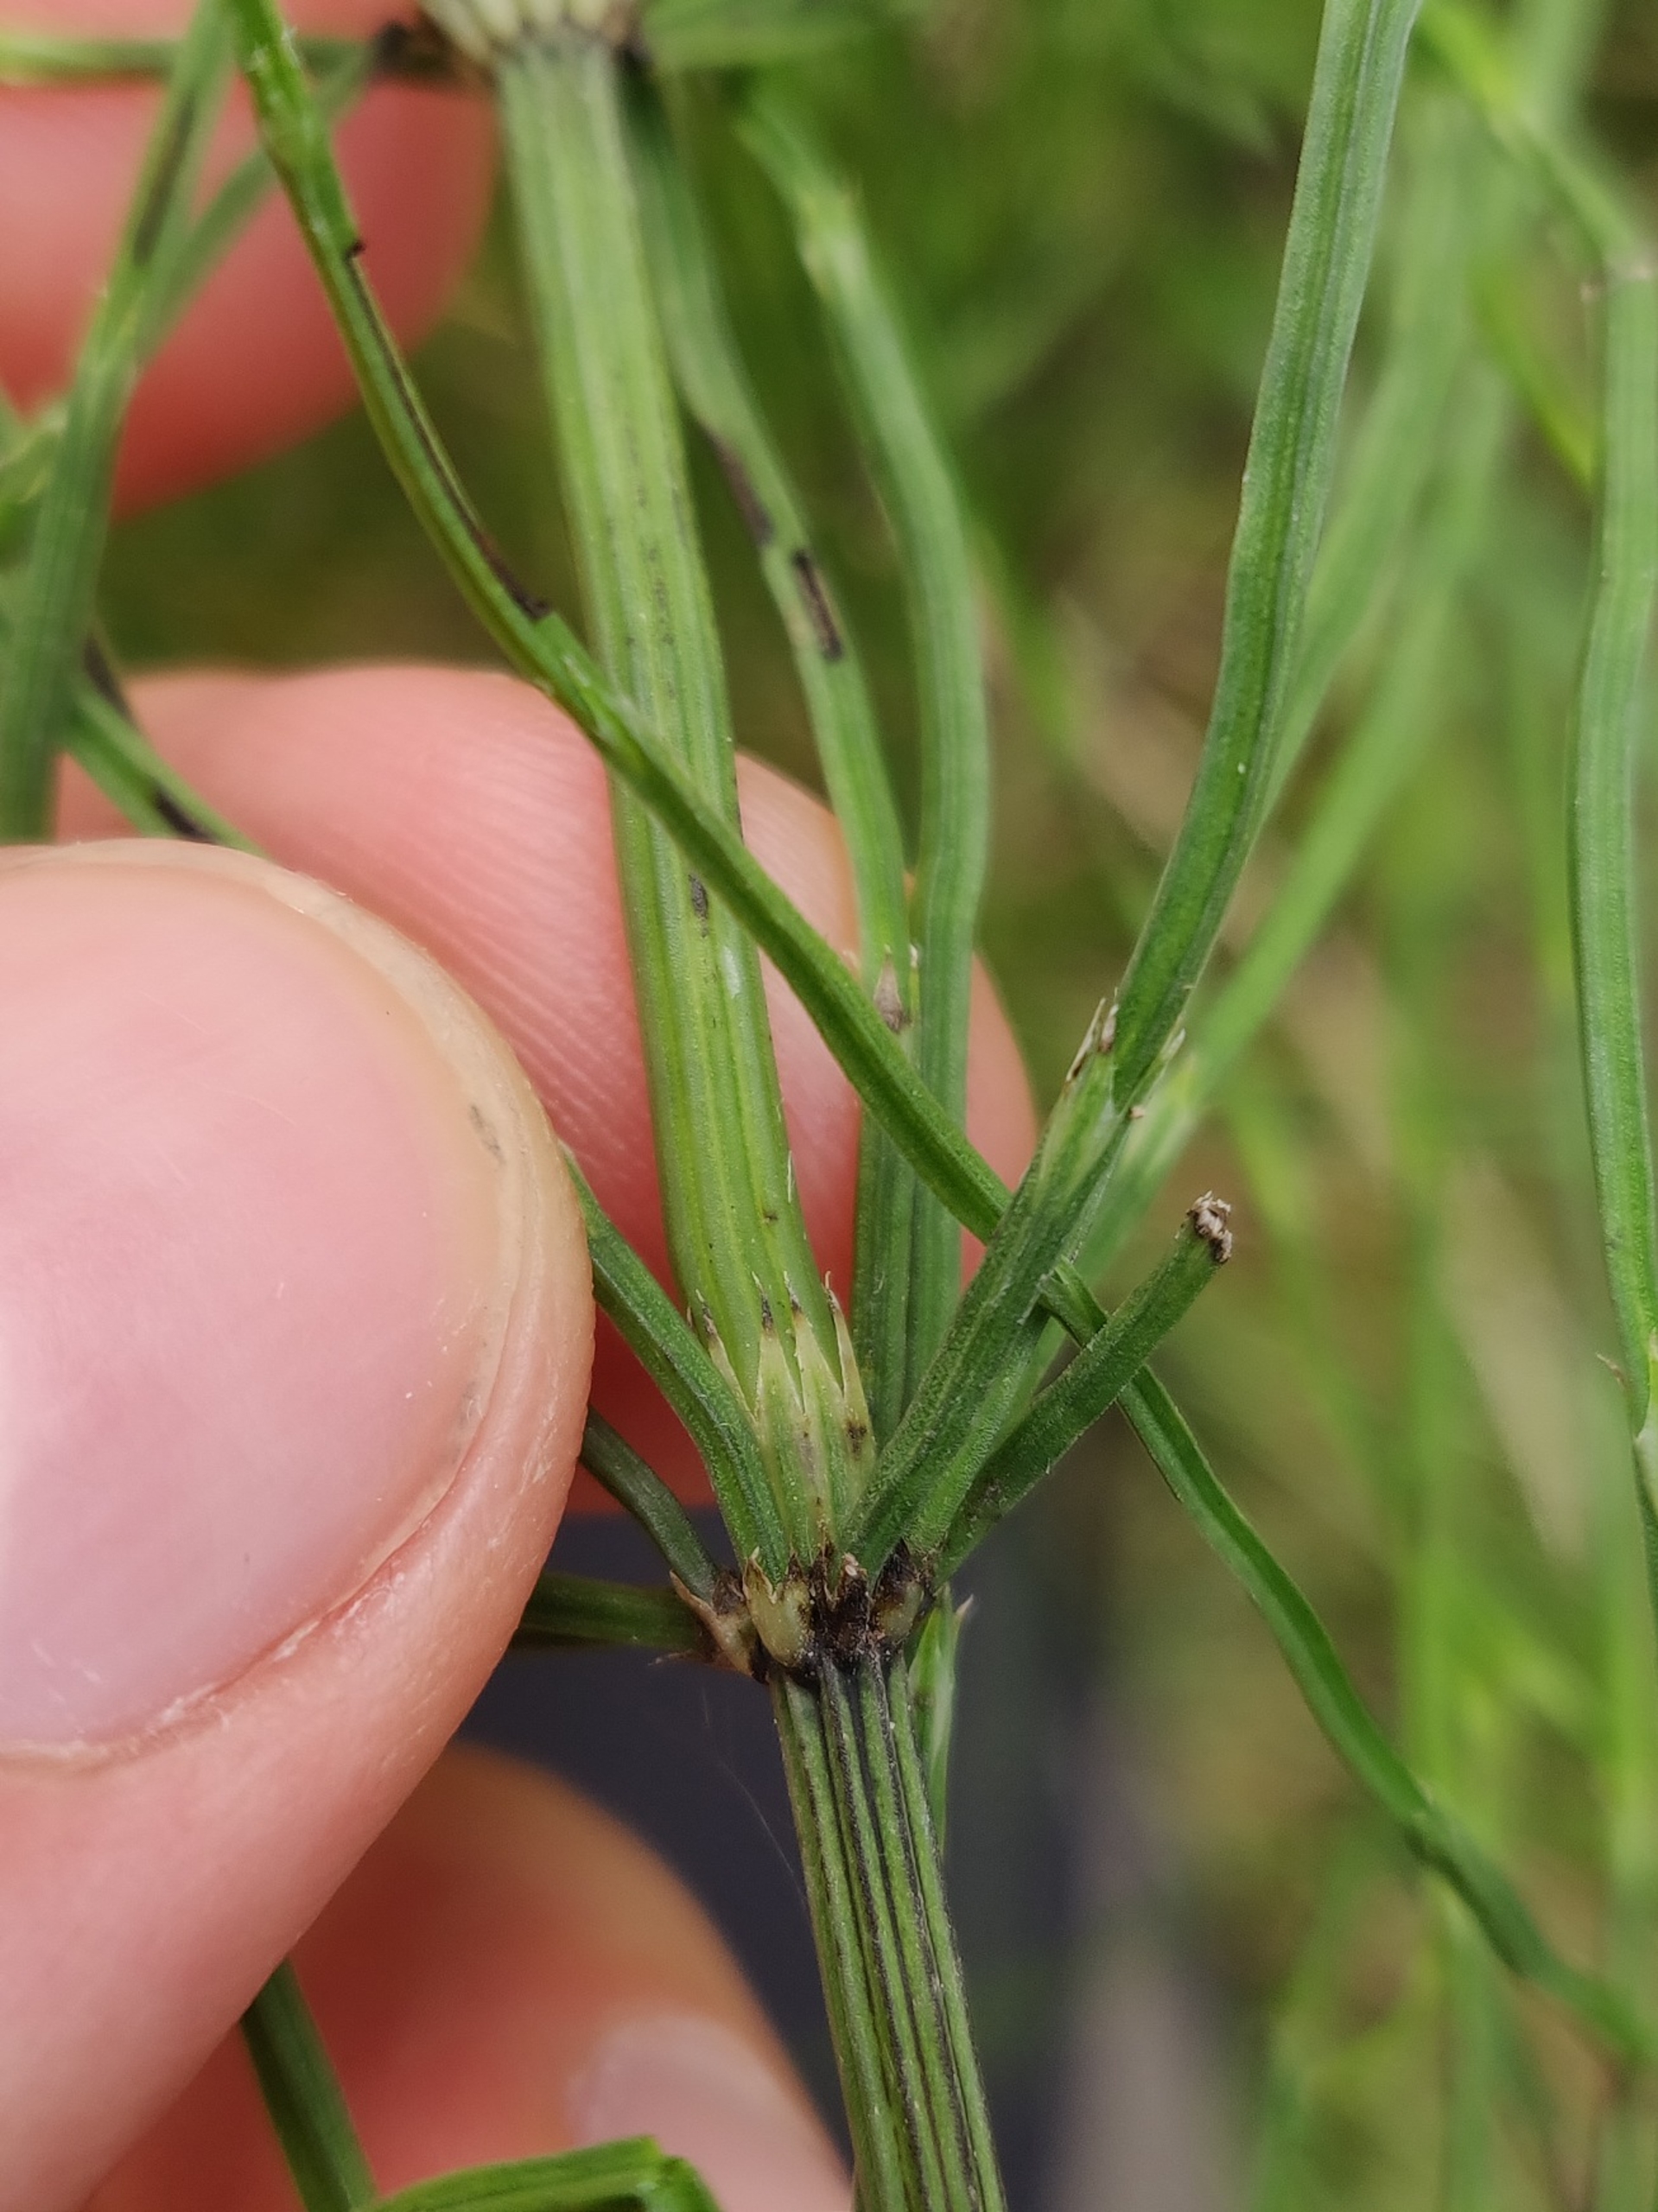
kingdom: Plantae
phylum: Tracheophyta
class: Polypodiopsida
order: Equisetales
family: Equisetaceae
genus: Equisetum
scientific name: Equisetum arvense
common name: Ager-padderok
